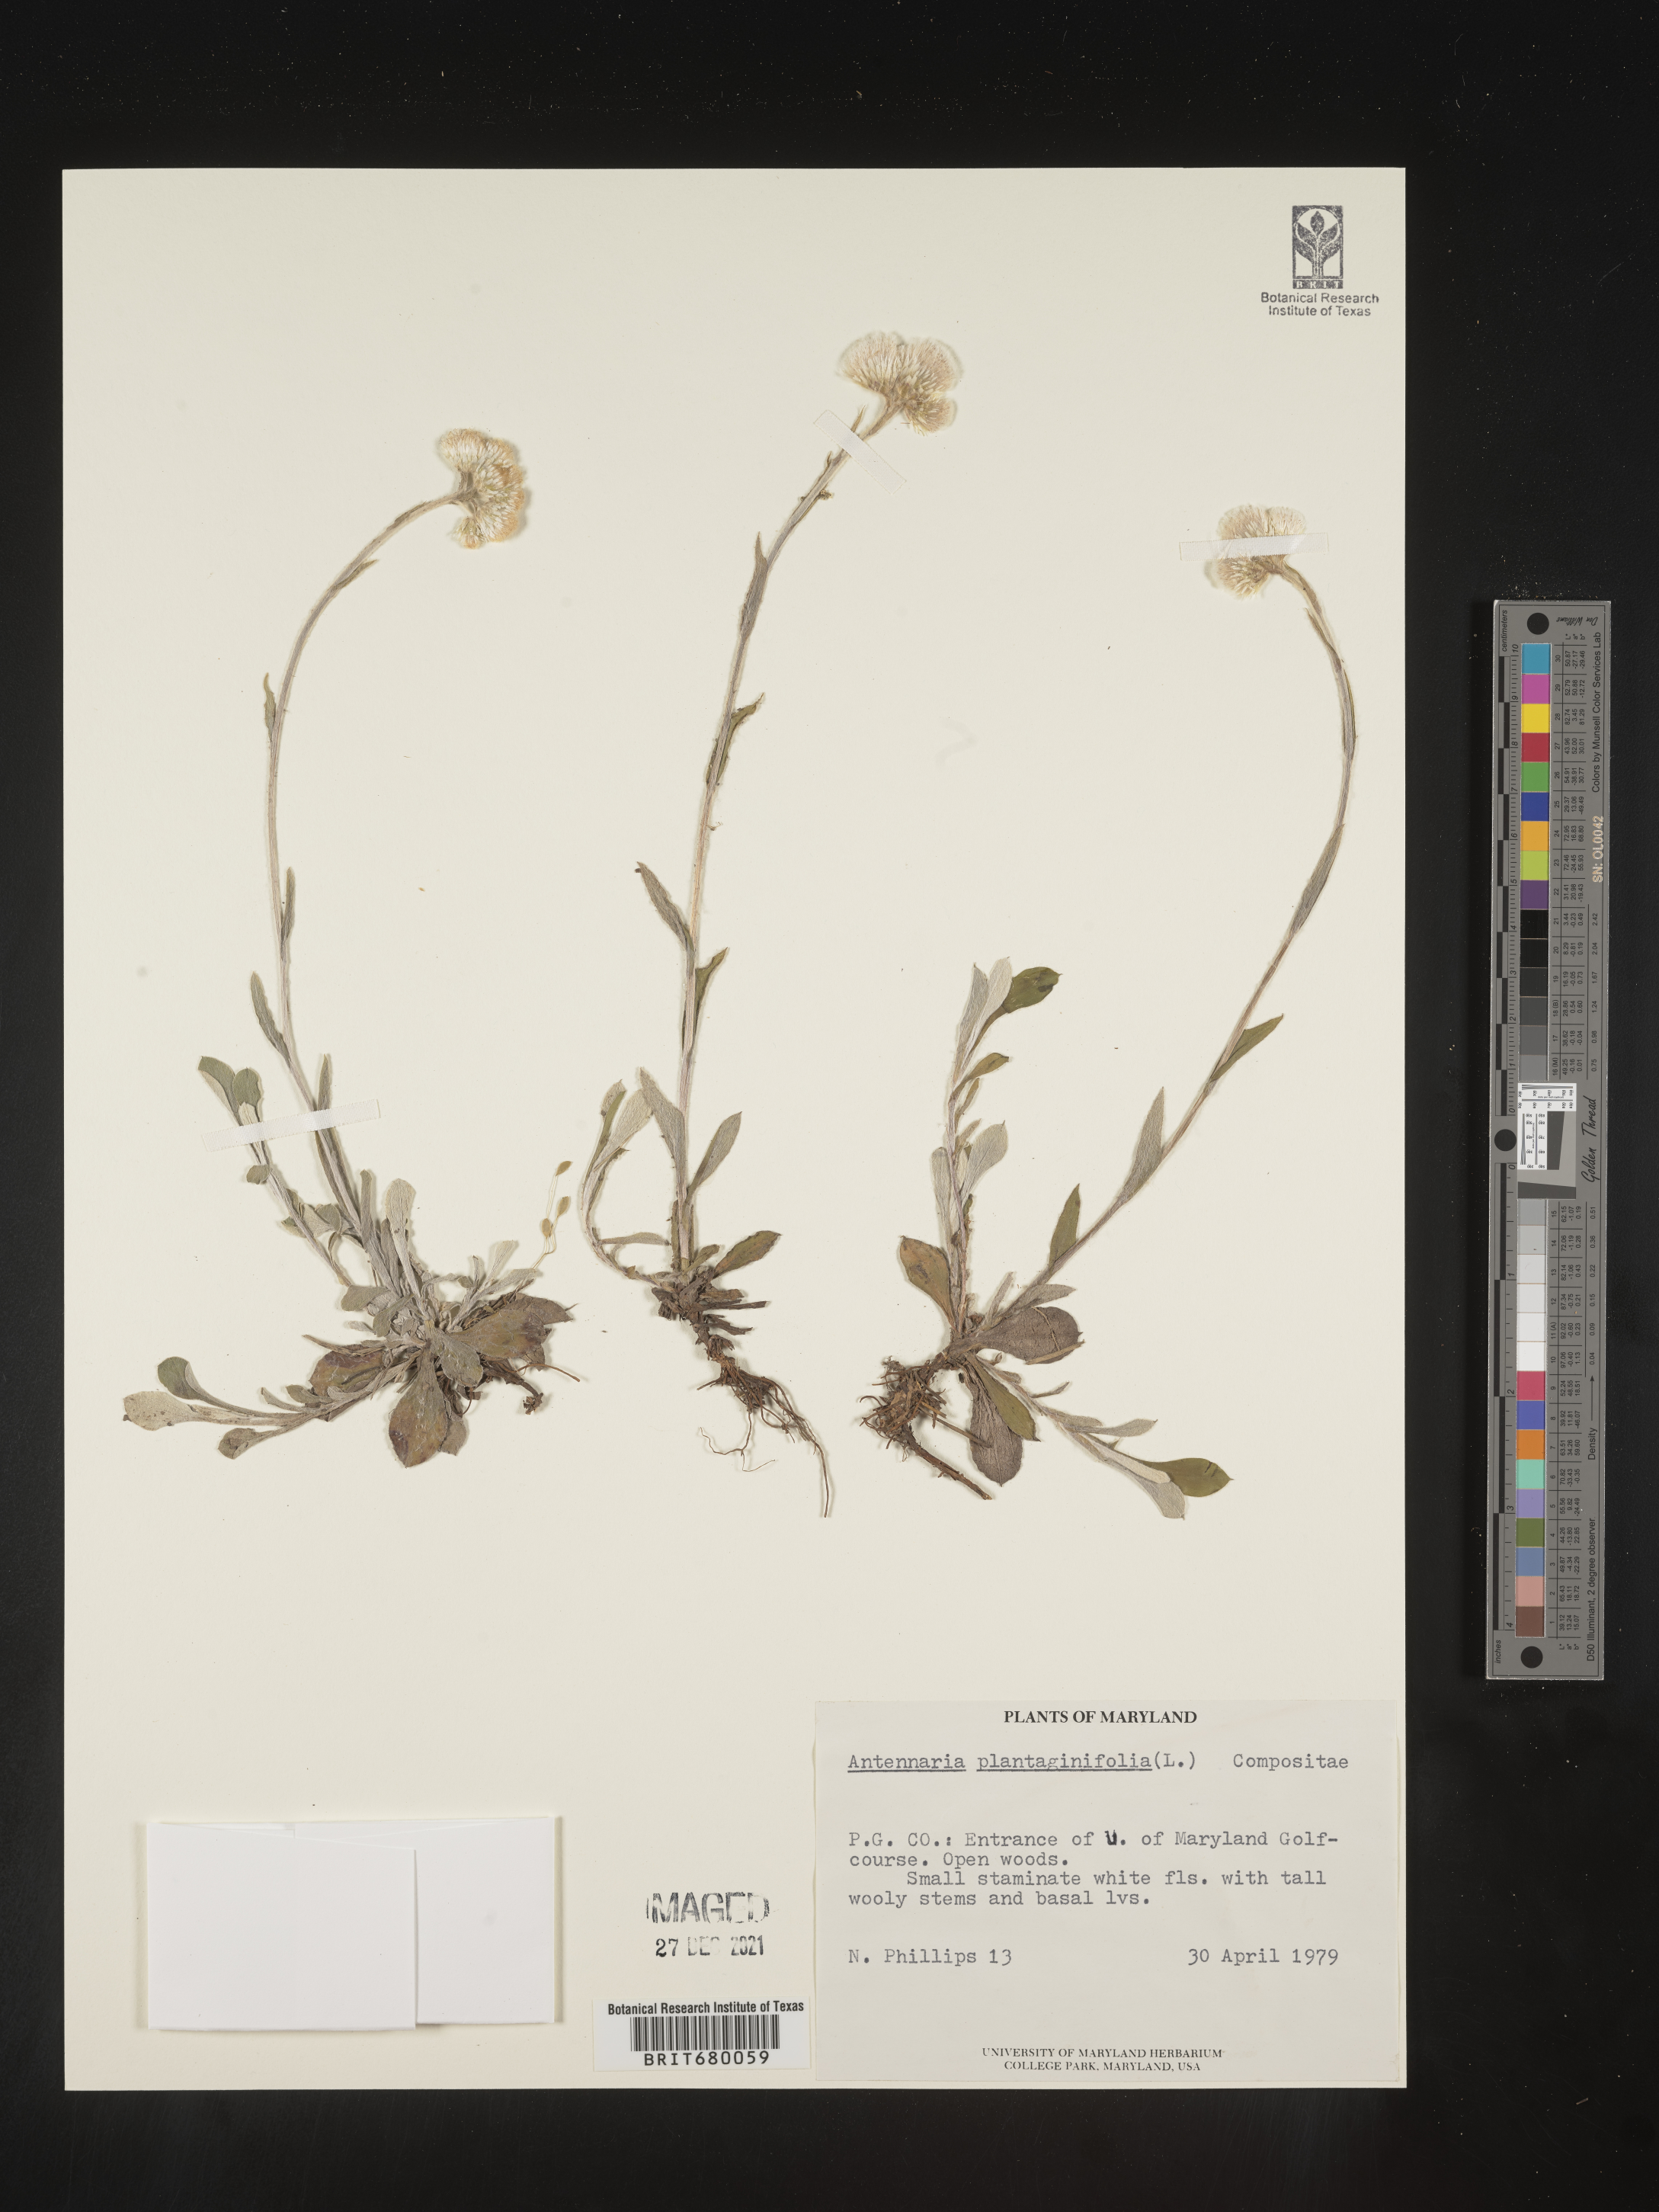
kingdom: Plantae
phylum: Tracheophyta
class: Magnoliopsida
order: Asterales
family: Asteraceae
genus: Antennaria
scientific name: Antennaria plantaginifolia
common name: Plantain-leaved pussytoes
